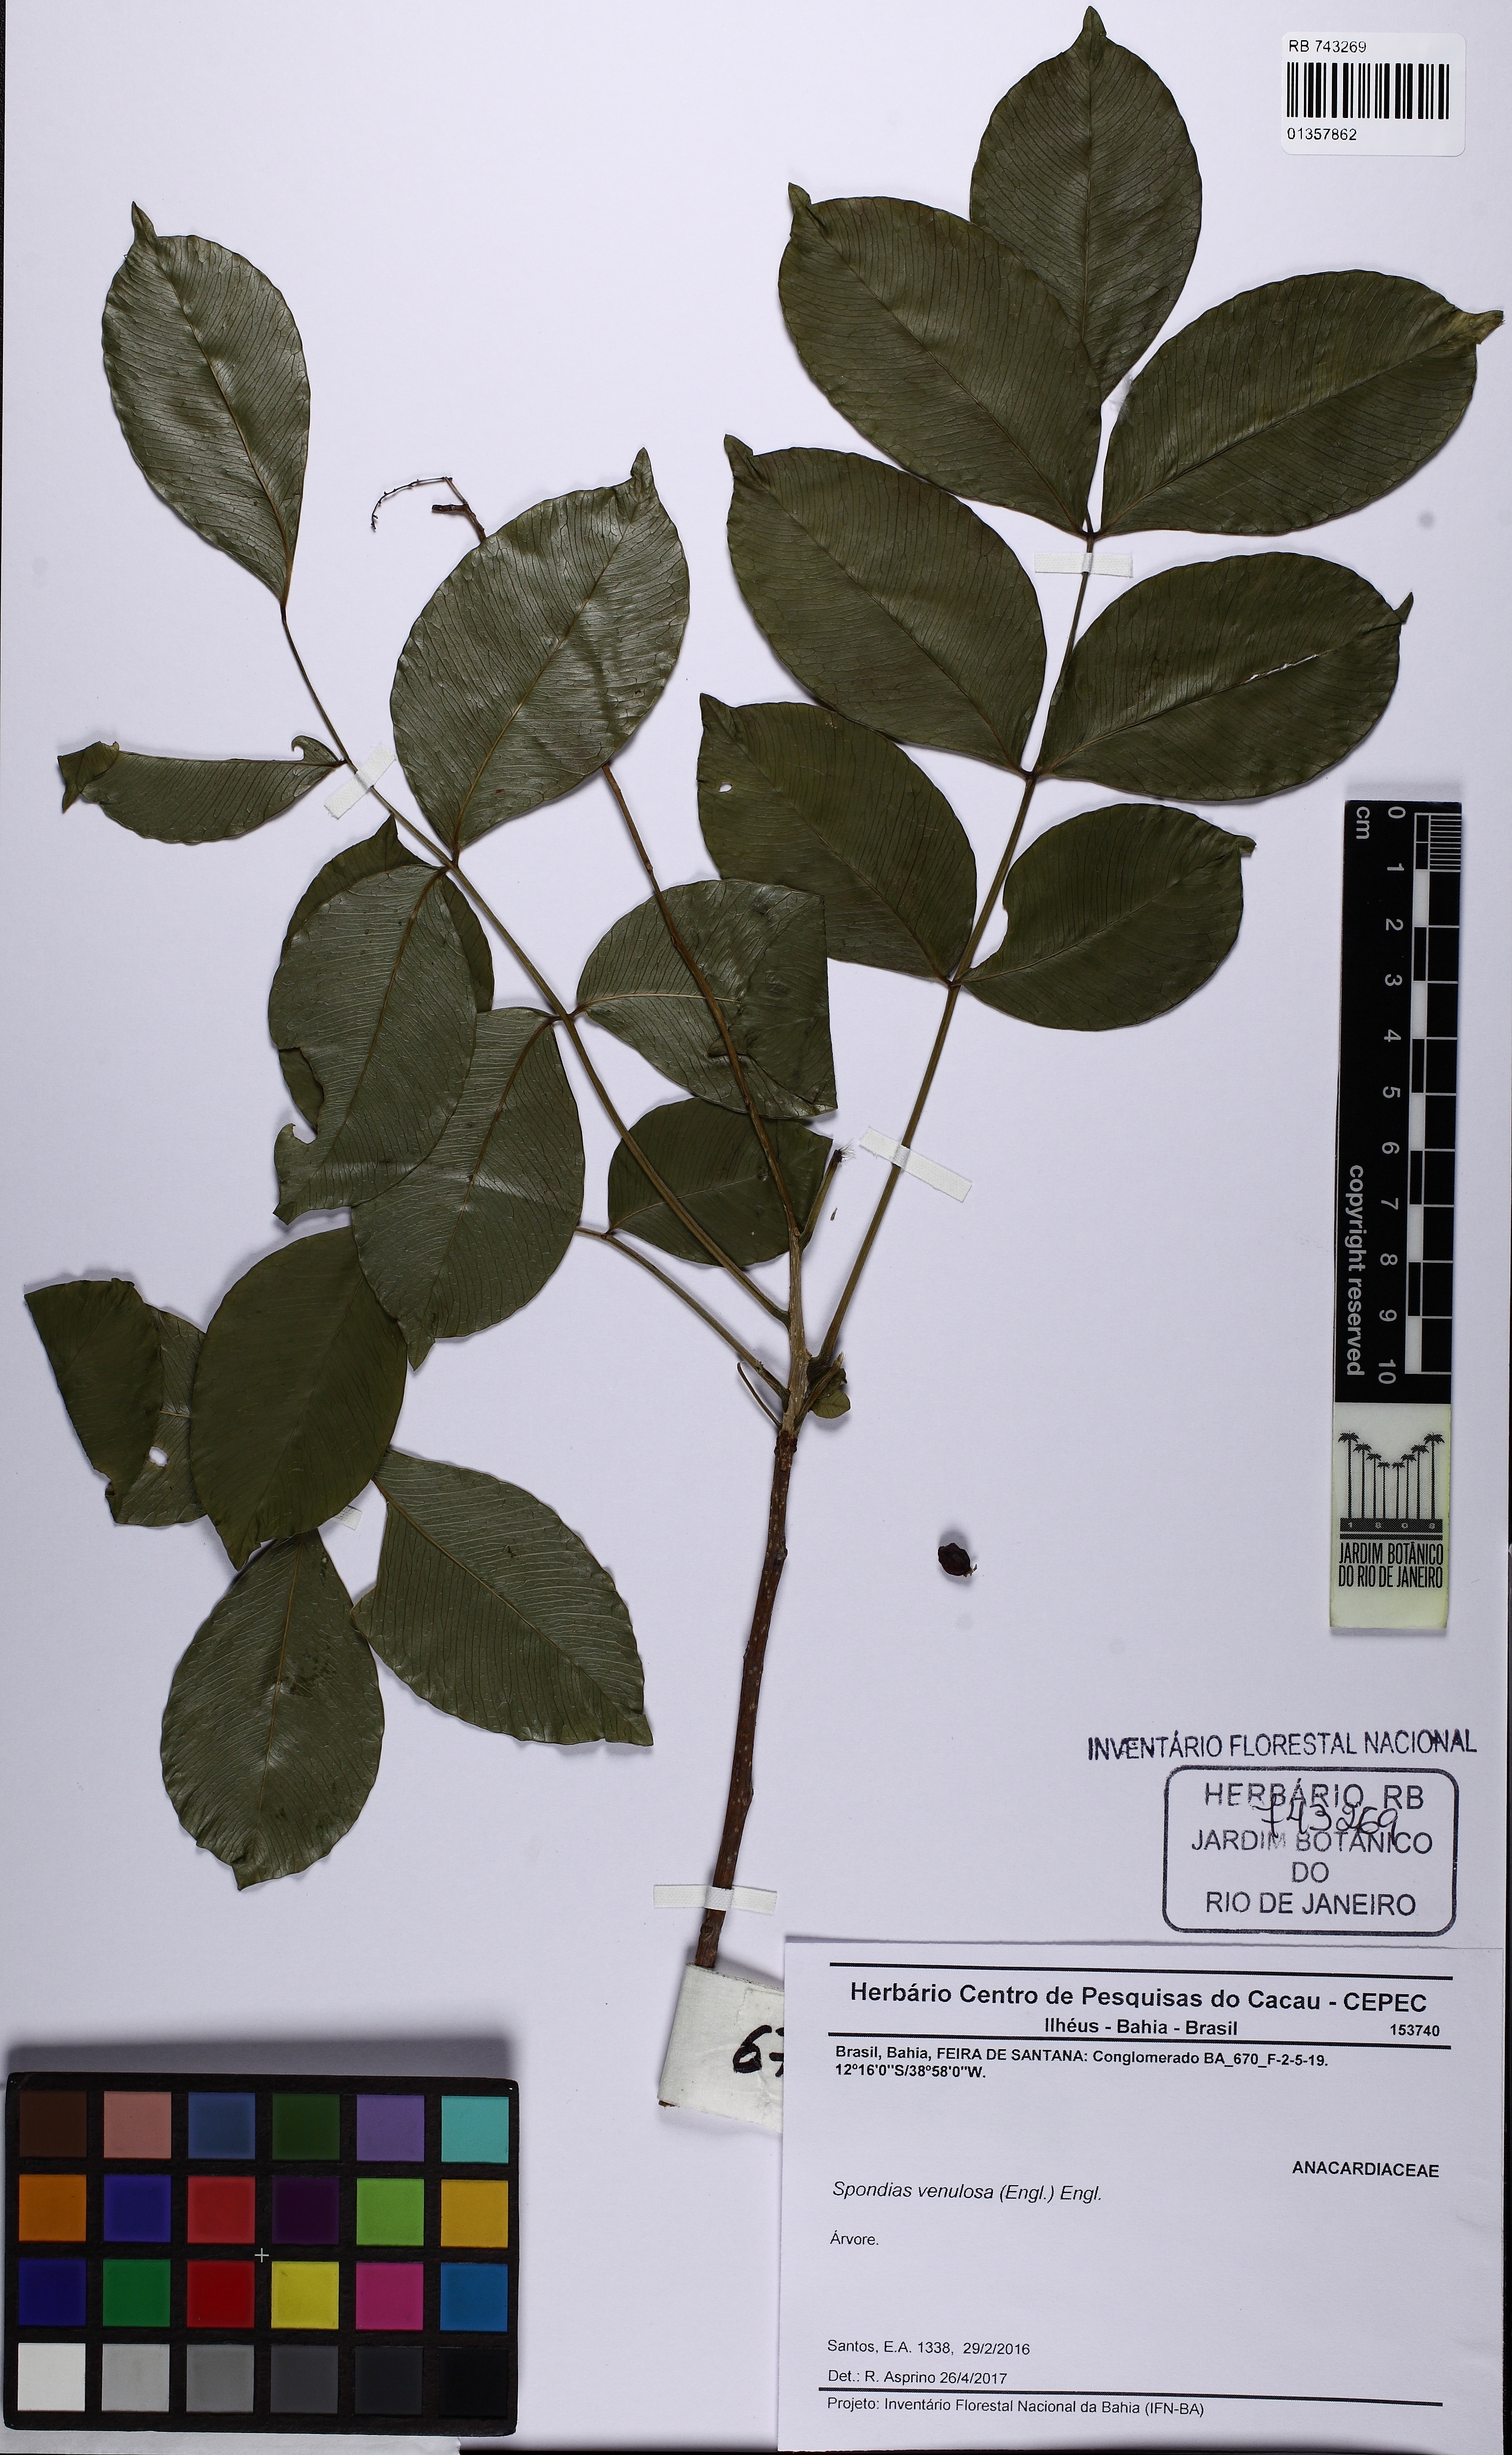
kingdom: Plantae
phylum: Tracheophyta
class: Magnoliopsida
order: Sapindales
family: Anacardiaceae
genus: Spondias
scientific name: Spondias venulosa
